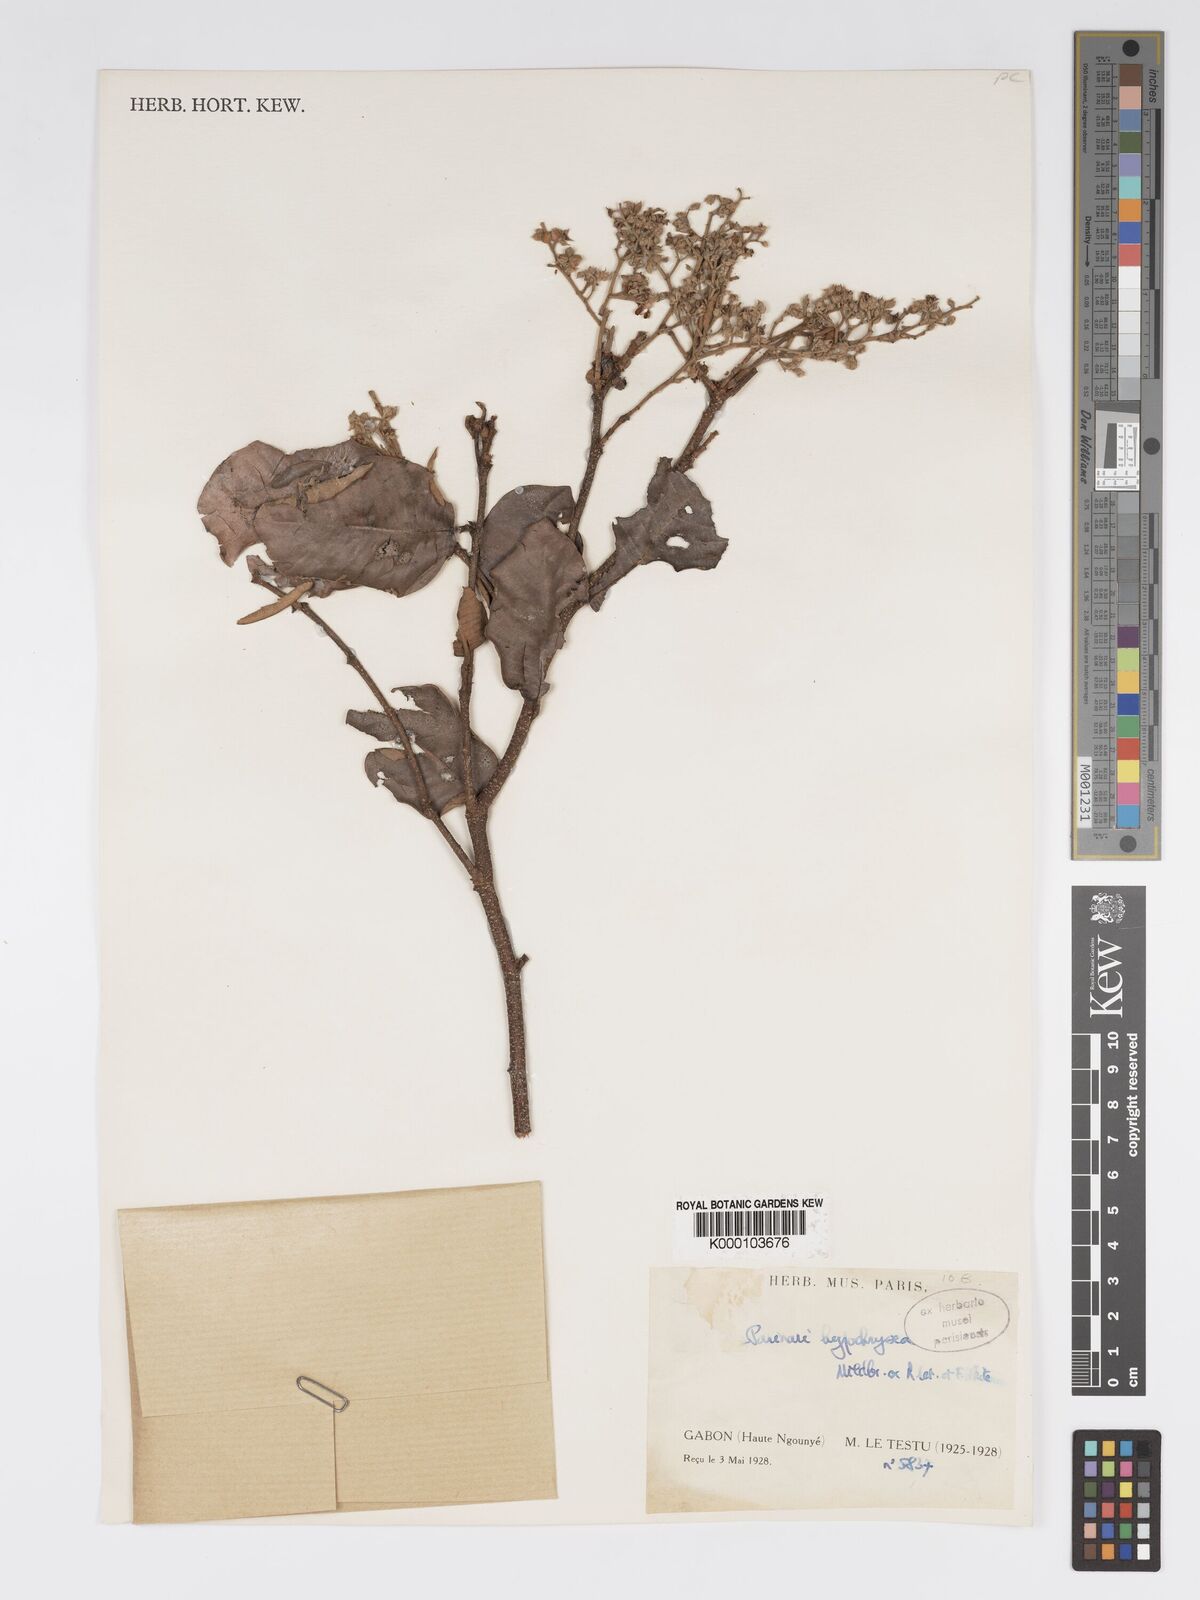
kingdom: Plantae
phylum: Tracheophyta
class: Magnoliopsida
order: Malpighiales
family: Chrysobalanaceae
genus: Parinari
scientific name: Parinari hypochrysea
